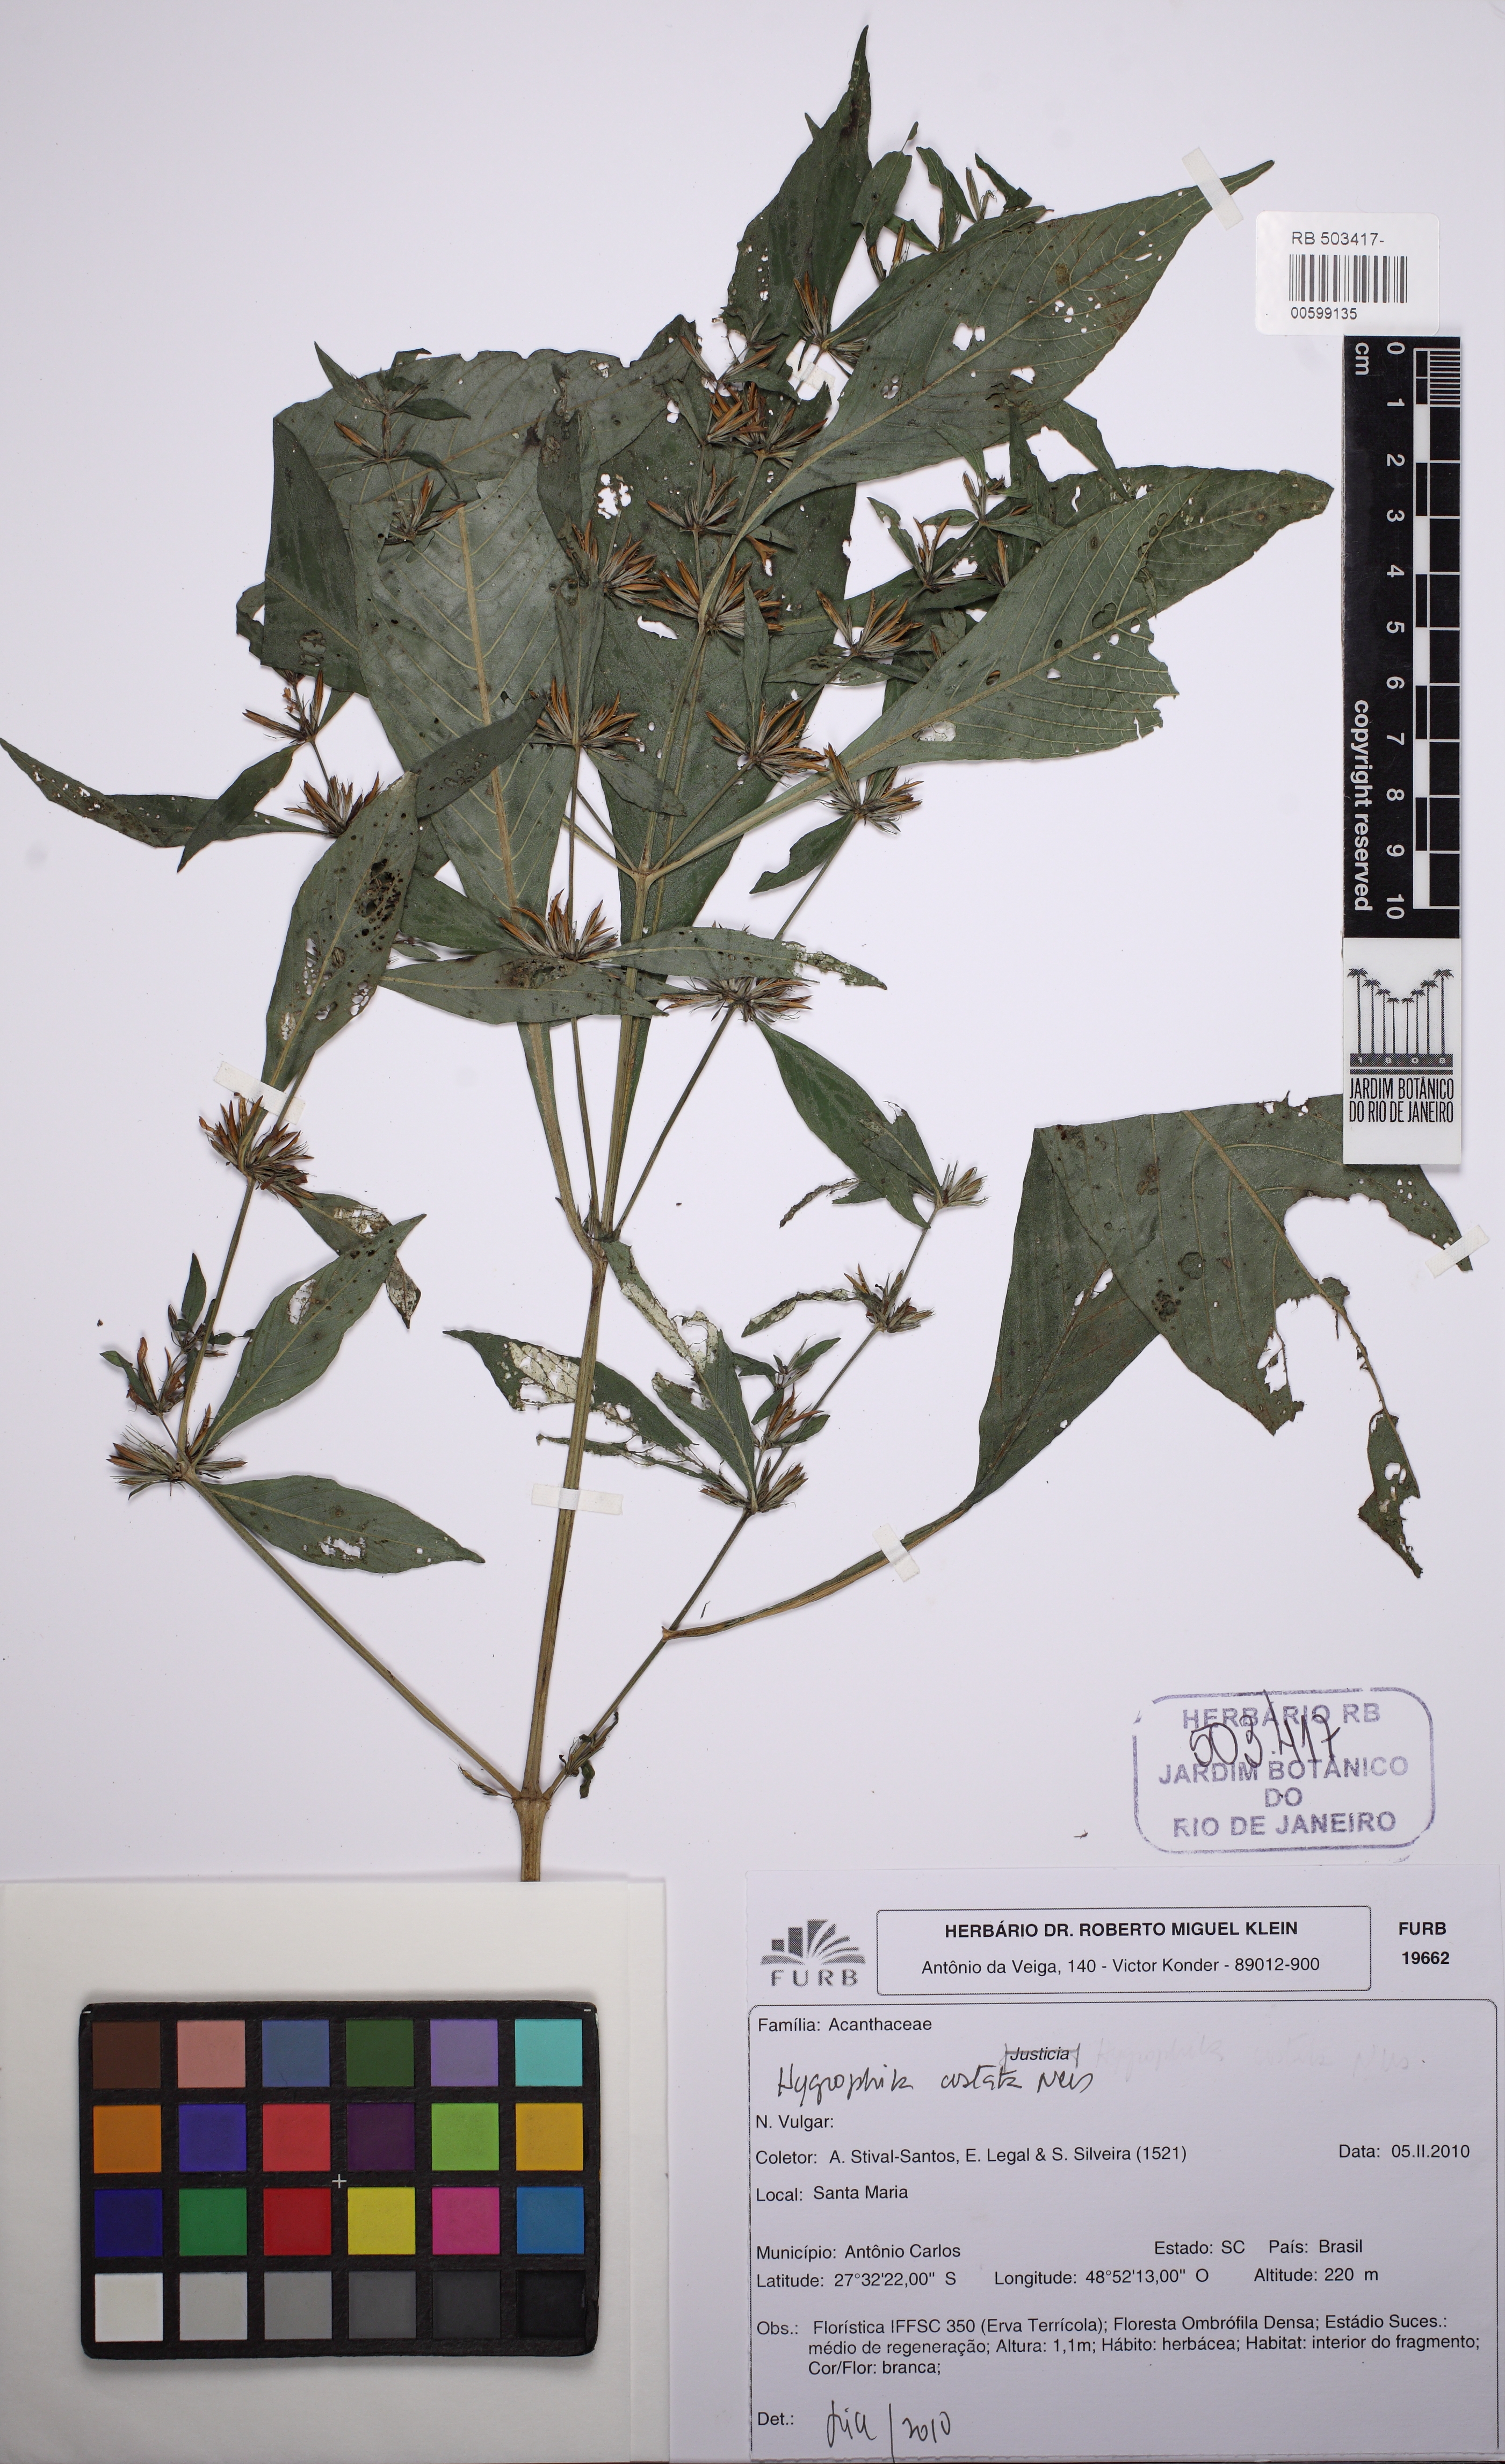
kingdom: Plantae
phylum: Tracheophyta
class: Magnoliopsida
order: Lamiales
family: Acanthaceae
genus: Hygrophila
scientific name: Hygrophila costata
